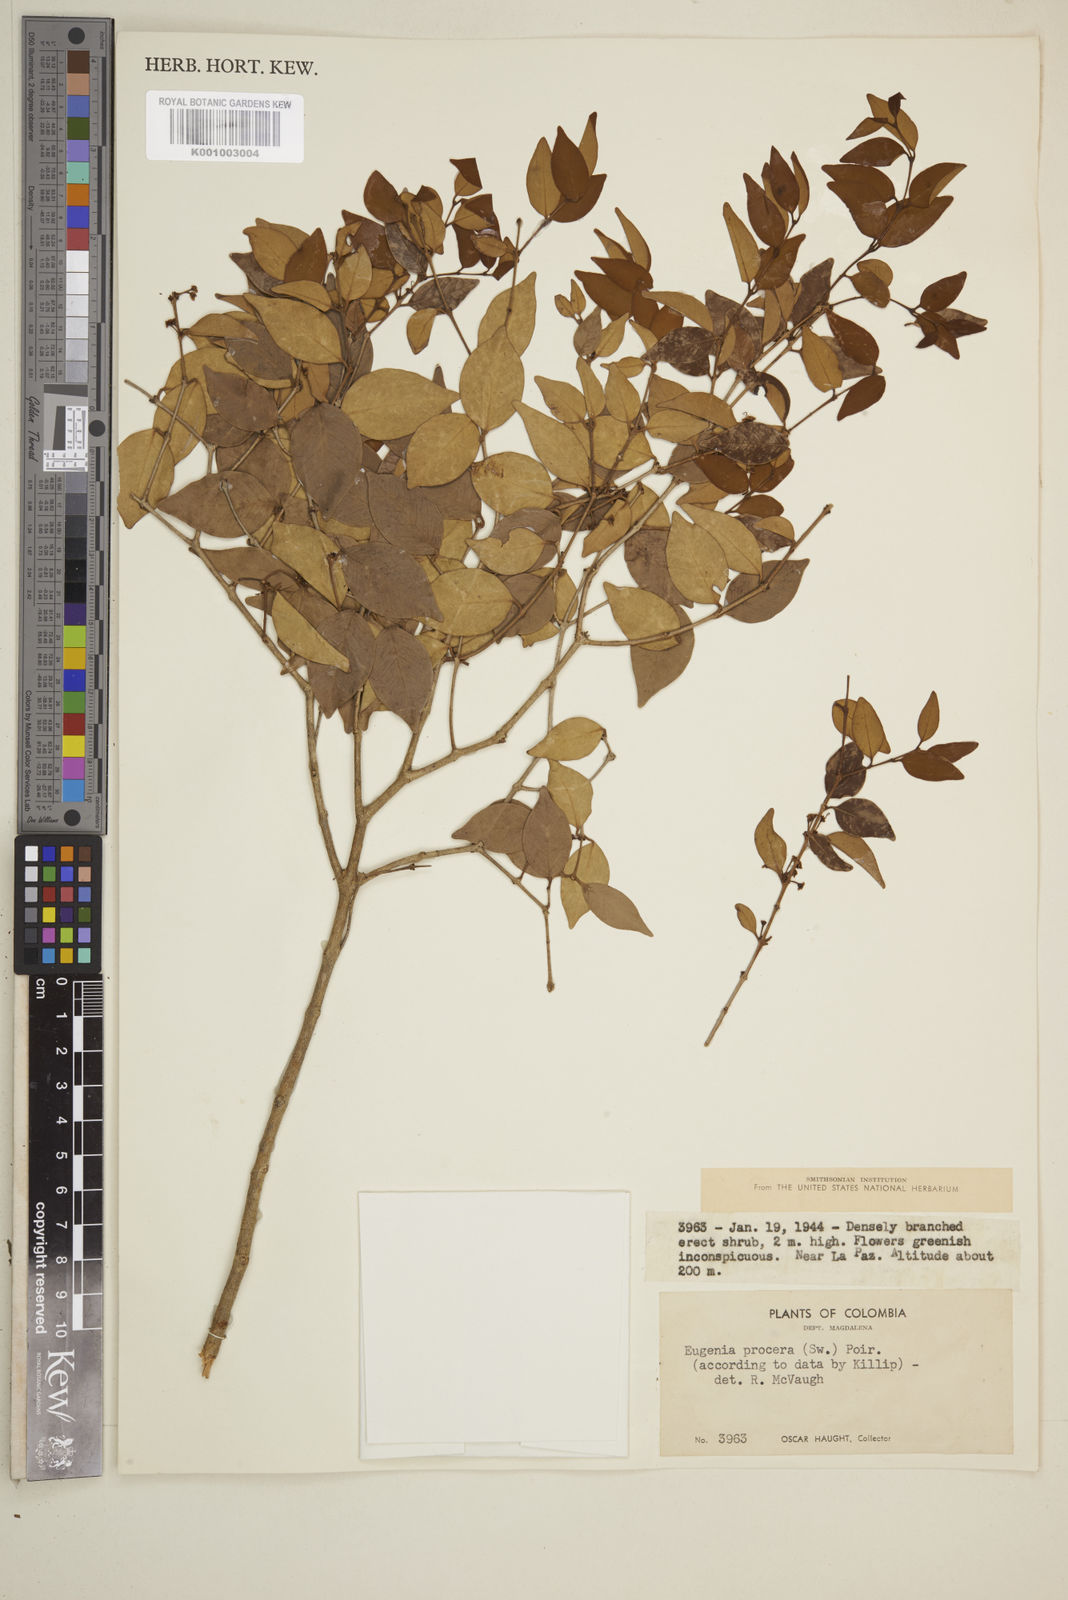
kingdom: Plantae
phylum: Tracheophyta
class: Magnoliopsida
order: Myrtales
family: Myrtaceae
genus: Eugenia
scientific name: Eugenia procera
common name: Bastard blackberry
